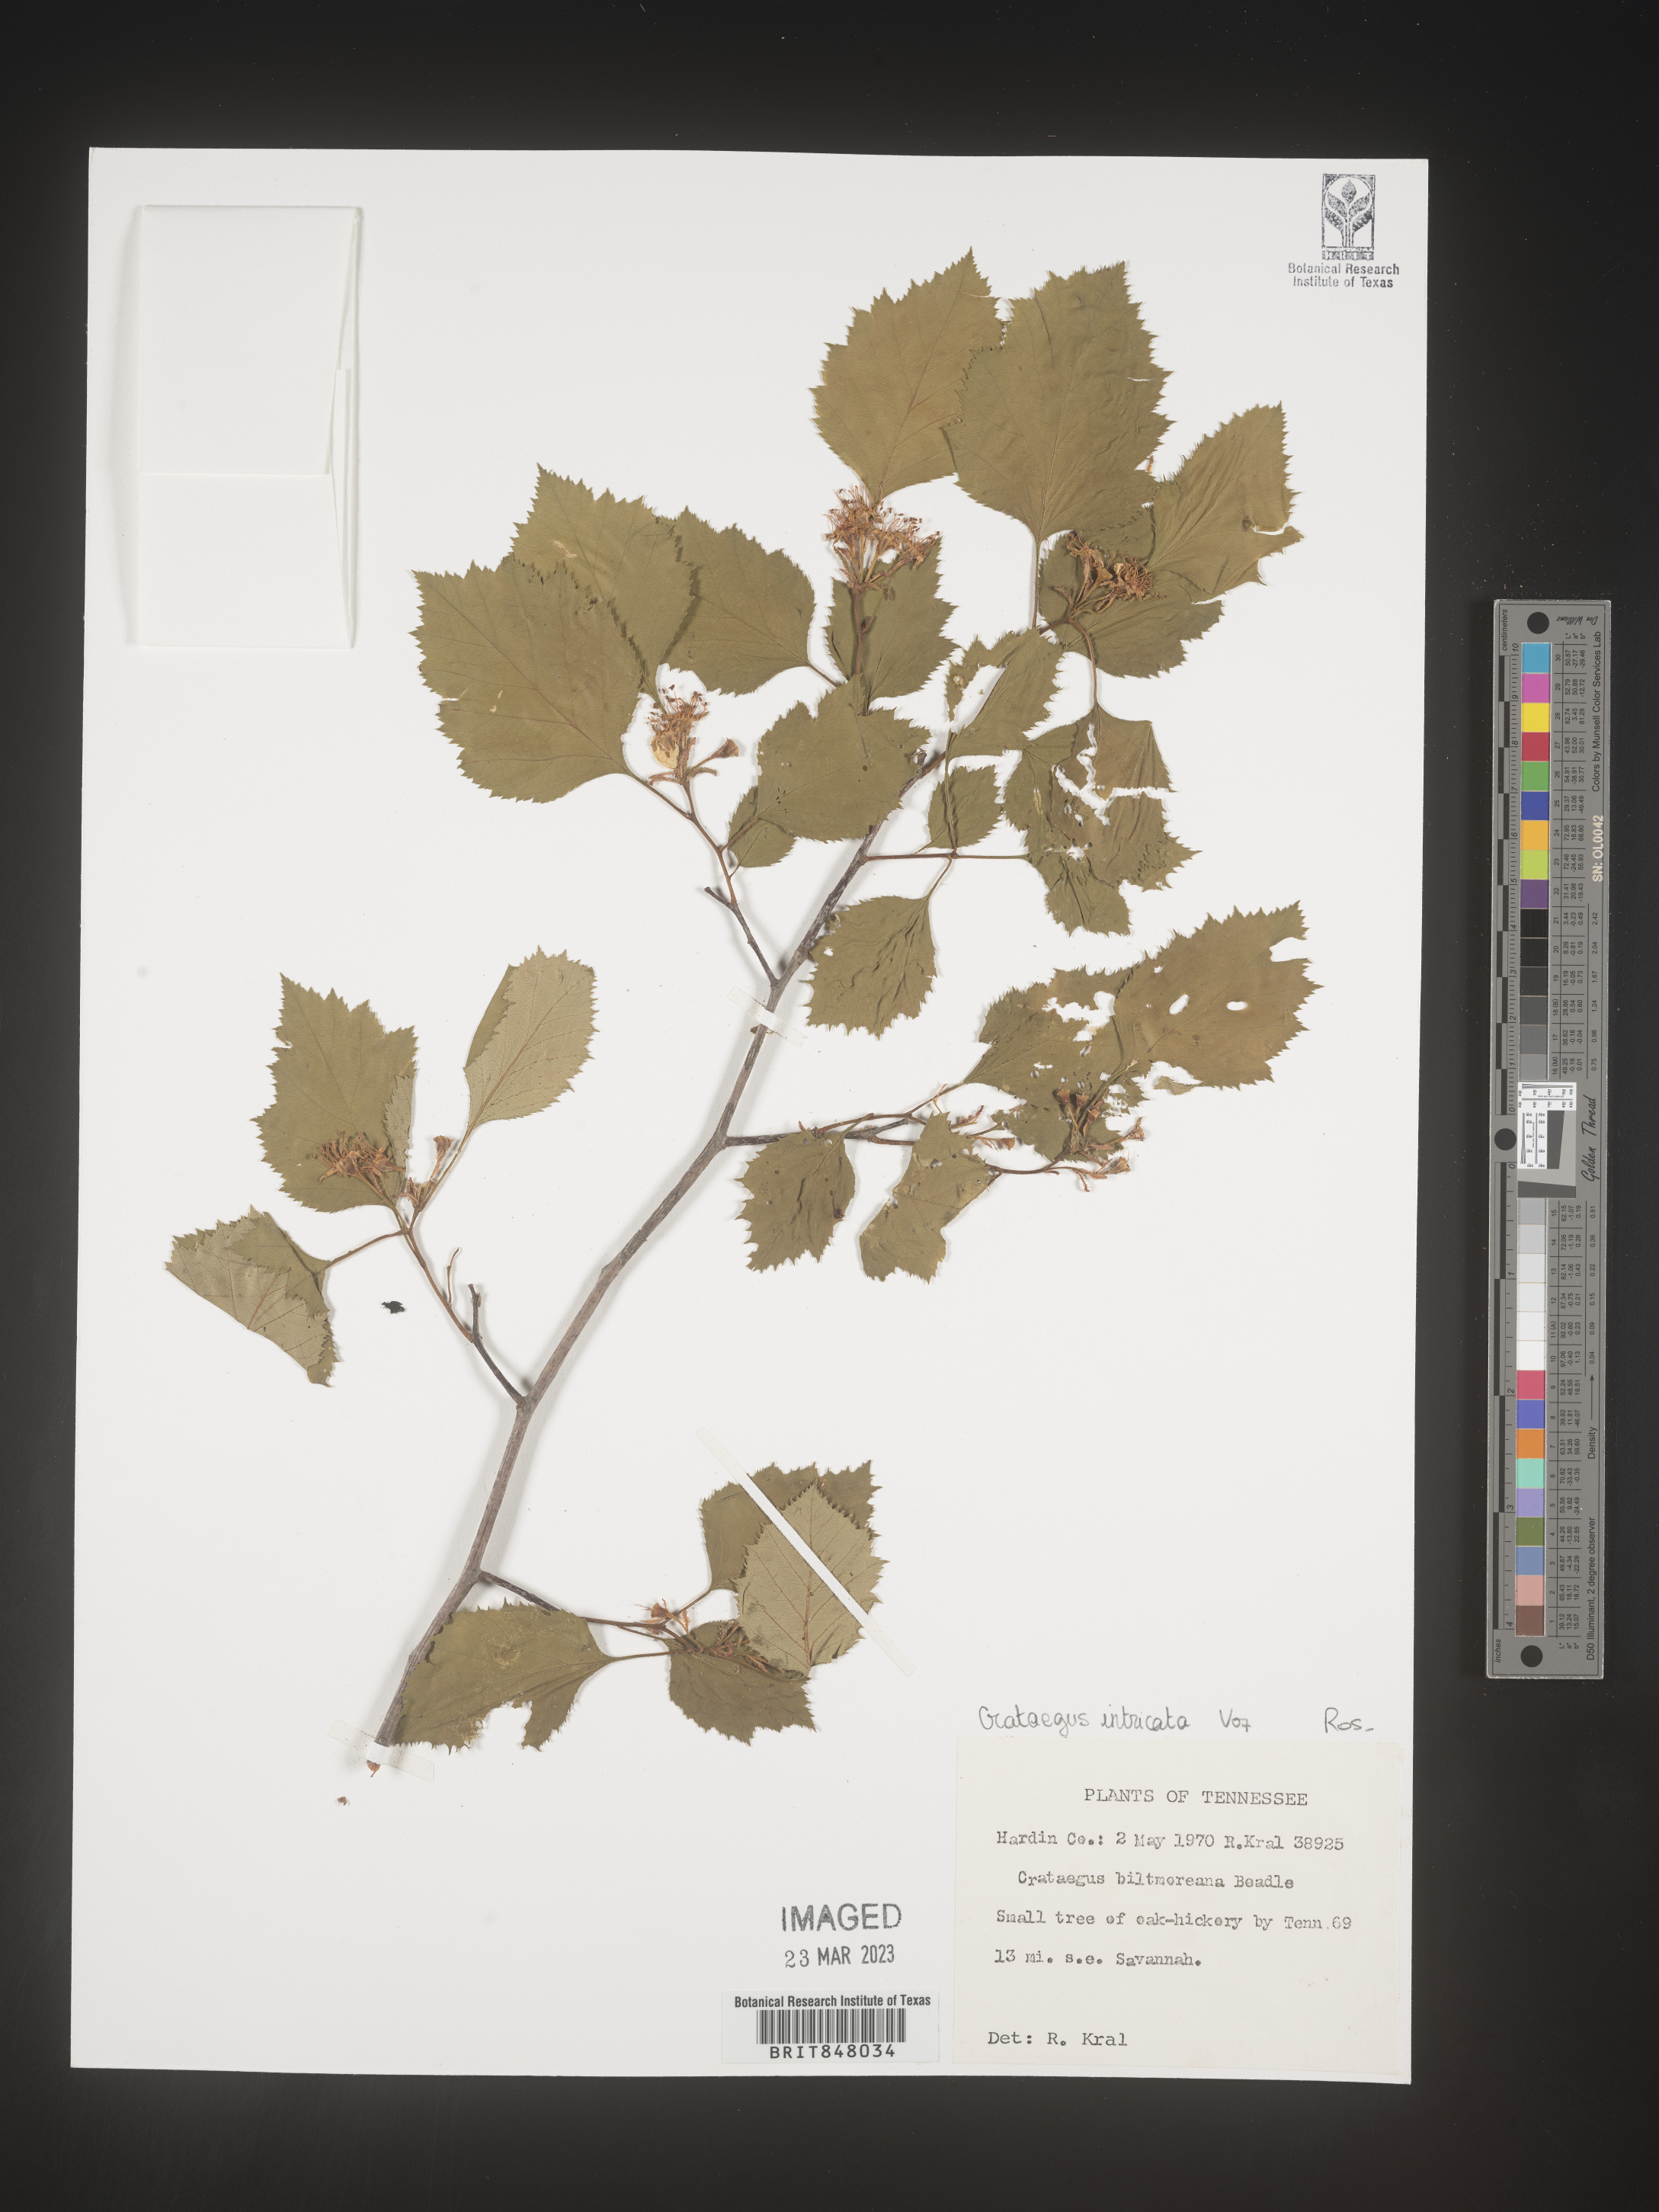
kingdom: Plantae
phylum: Tracheophyta
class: Magnoliopsida
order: Rosales
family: Rosaceae
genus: Crataegus
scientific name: Crataegus
